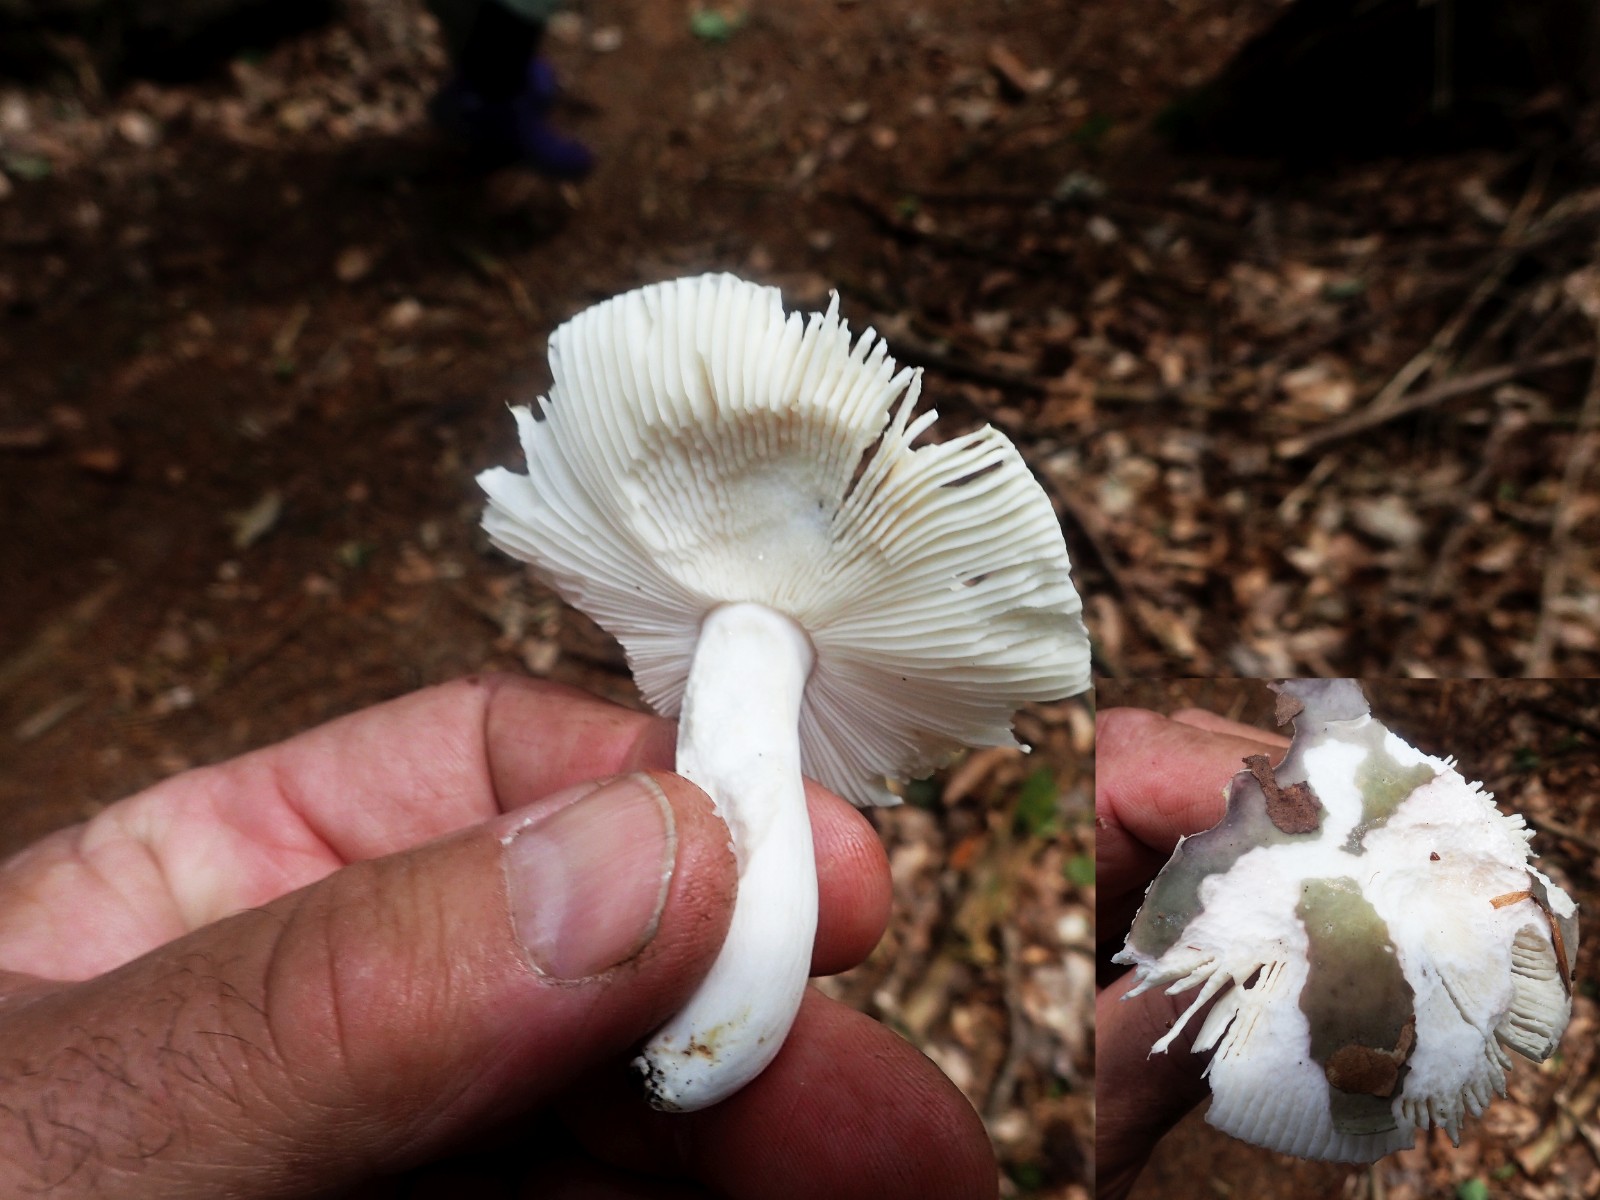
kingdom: Fungi
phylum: Basidiomycota
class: Agaricomycetes
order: Russulales
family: Russulaceae
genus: Russula
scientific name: Russula cyanoxantha
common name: broget skørhat
